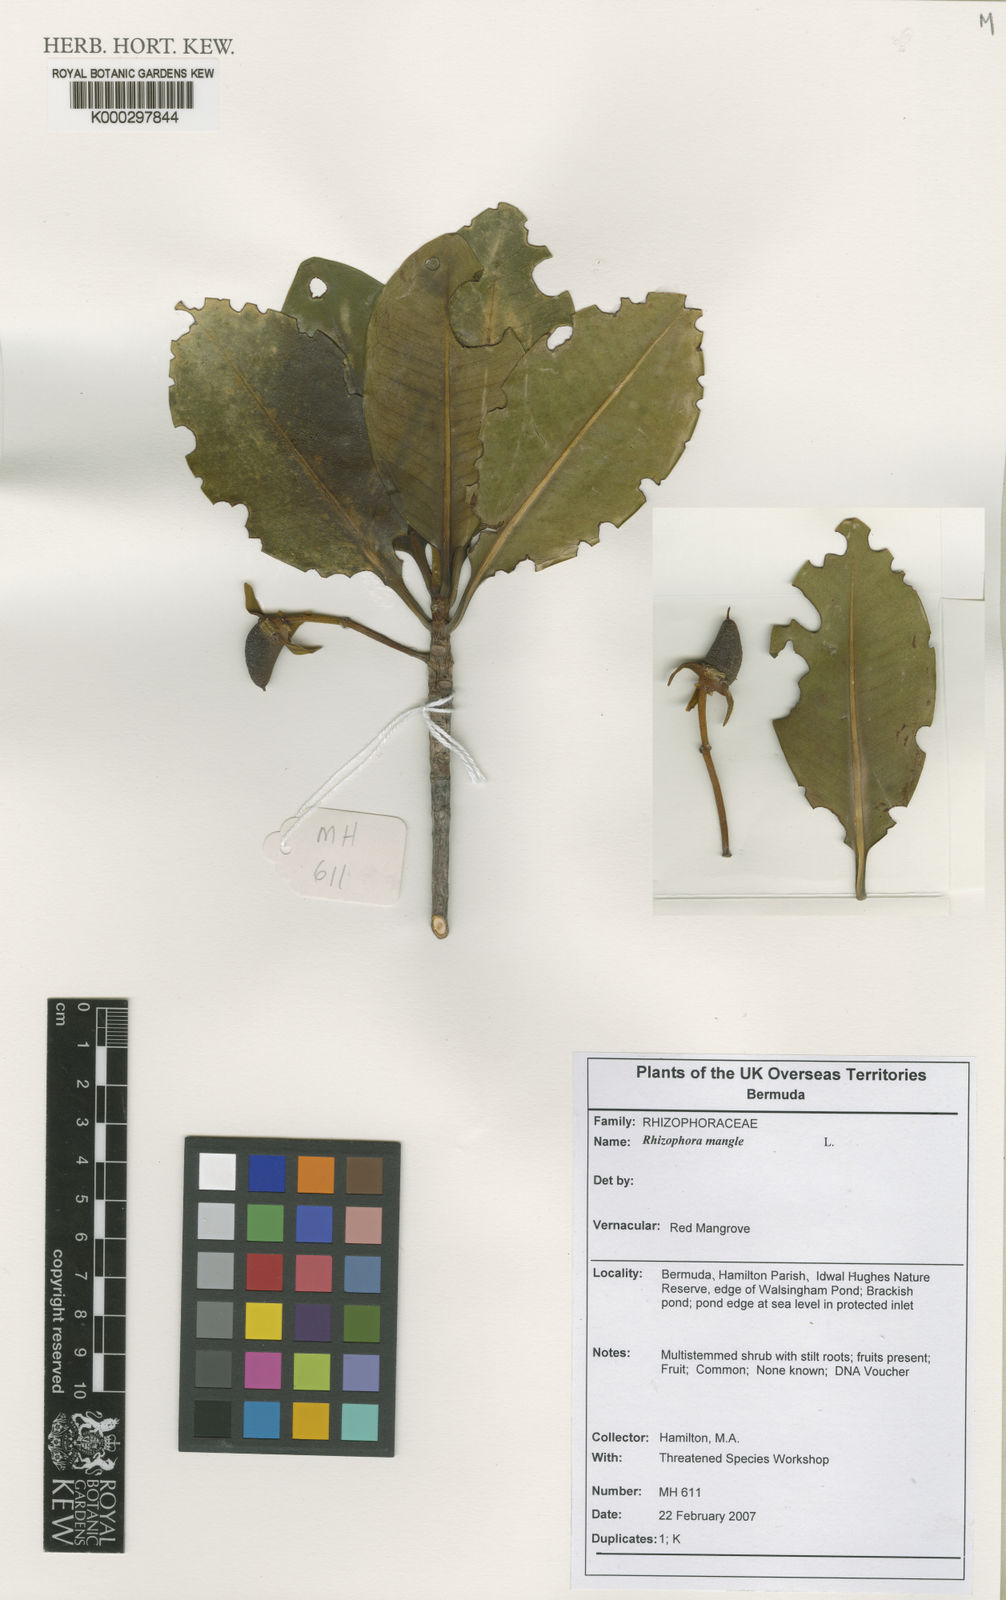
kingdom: Plantae
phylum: Tracheophyta
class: Magnoliopsida
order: Malpighiales
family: Rhizophoraceae
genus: Rhizophora
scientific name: Rhizophora
